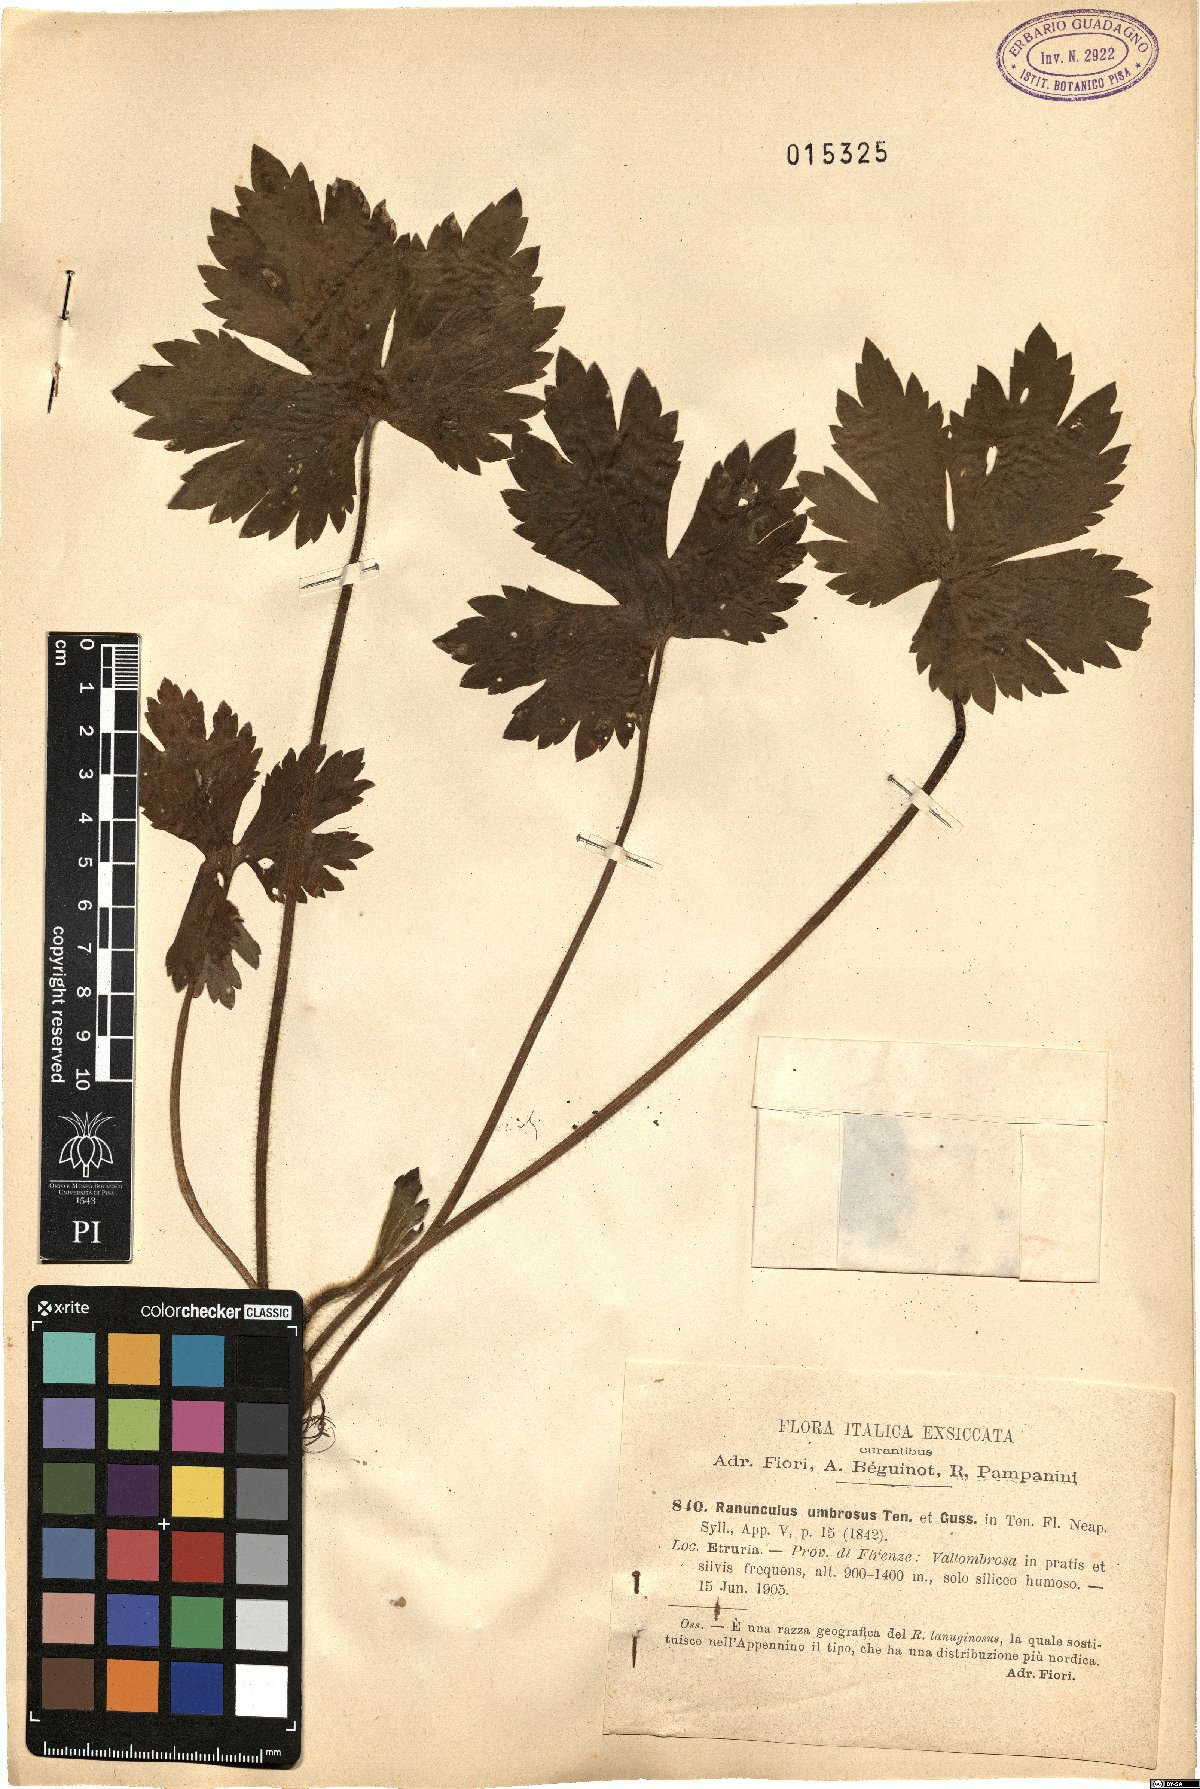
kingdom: Plantae
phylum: Tracheophyta
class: Magnoliopsida
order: Ranunculales
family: Ranunculaceae
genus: Ranunculus
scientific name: Ranunculus lanuginosus
